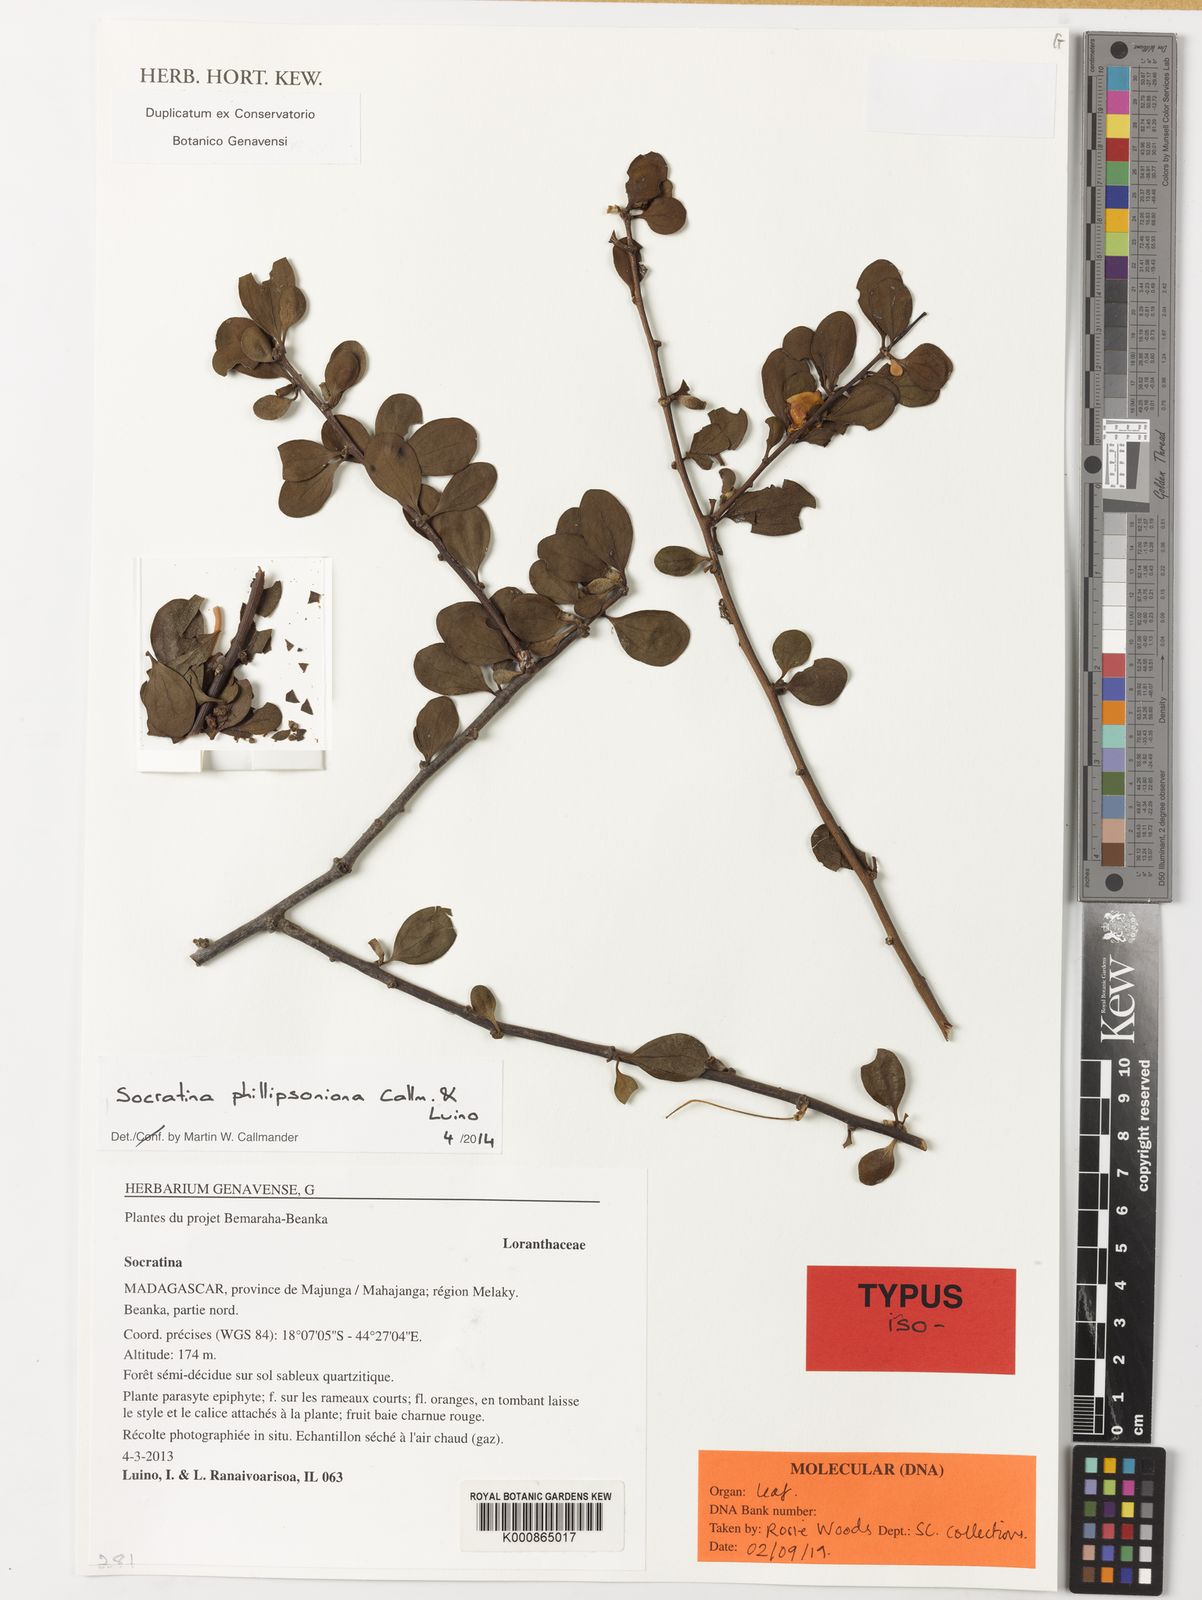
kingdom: Plantae
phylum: Tracheophyta
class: Magnoliopsida
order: Santalales
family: Loranthaceae
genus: Socratina
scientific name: Socratina phillipsoniana
